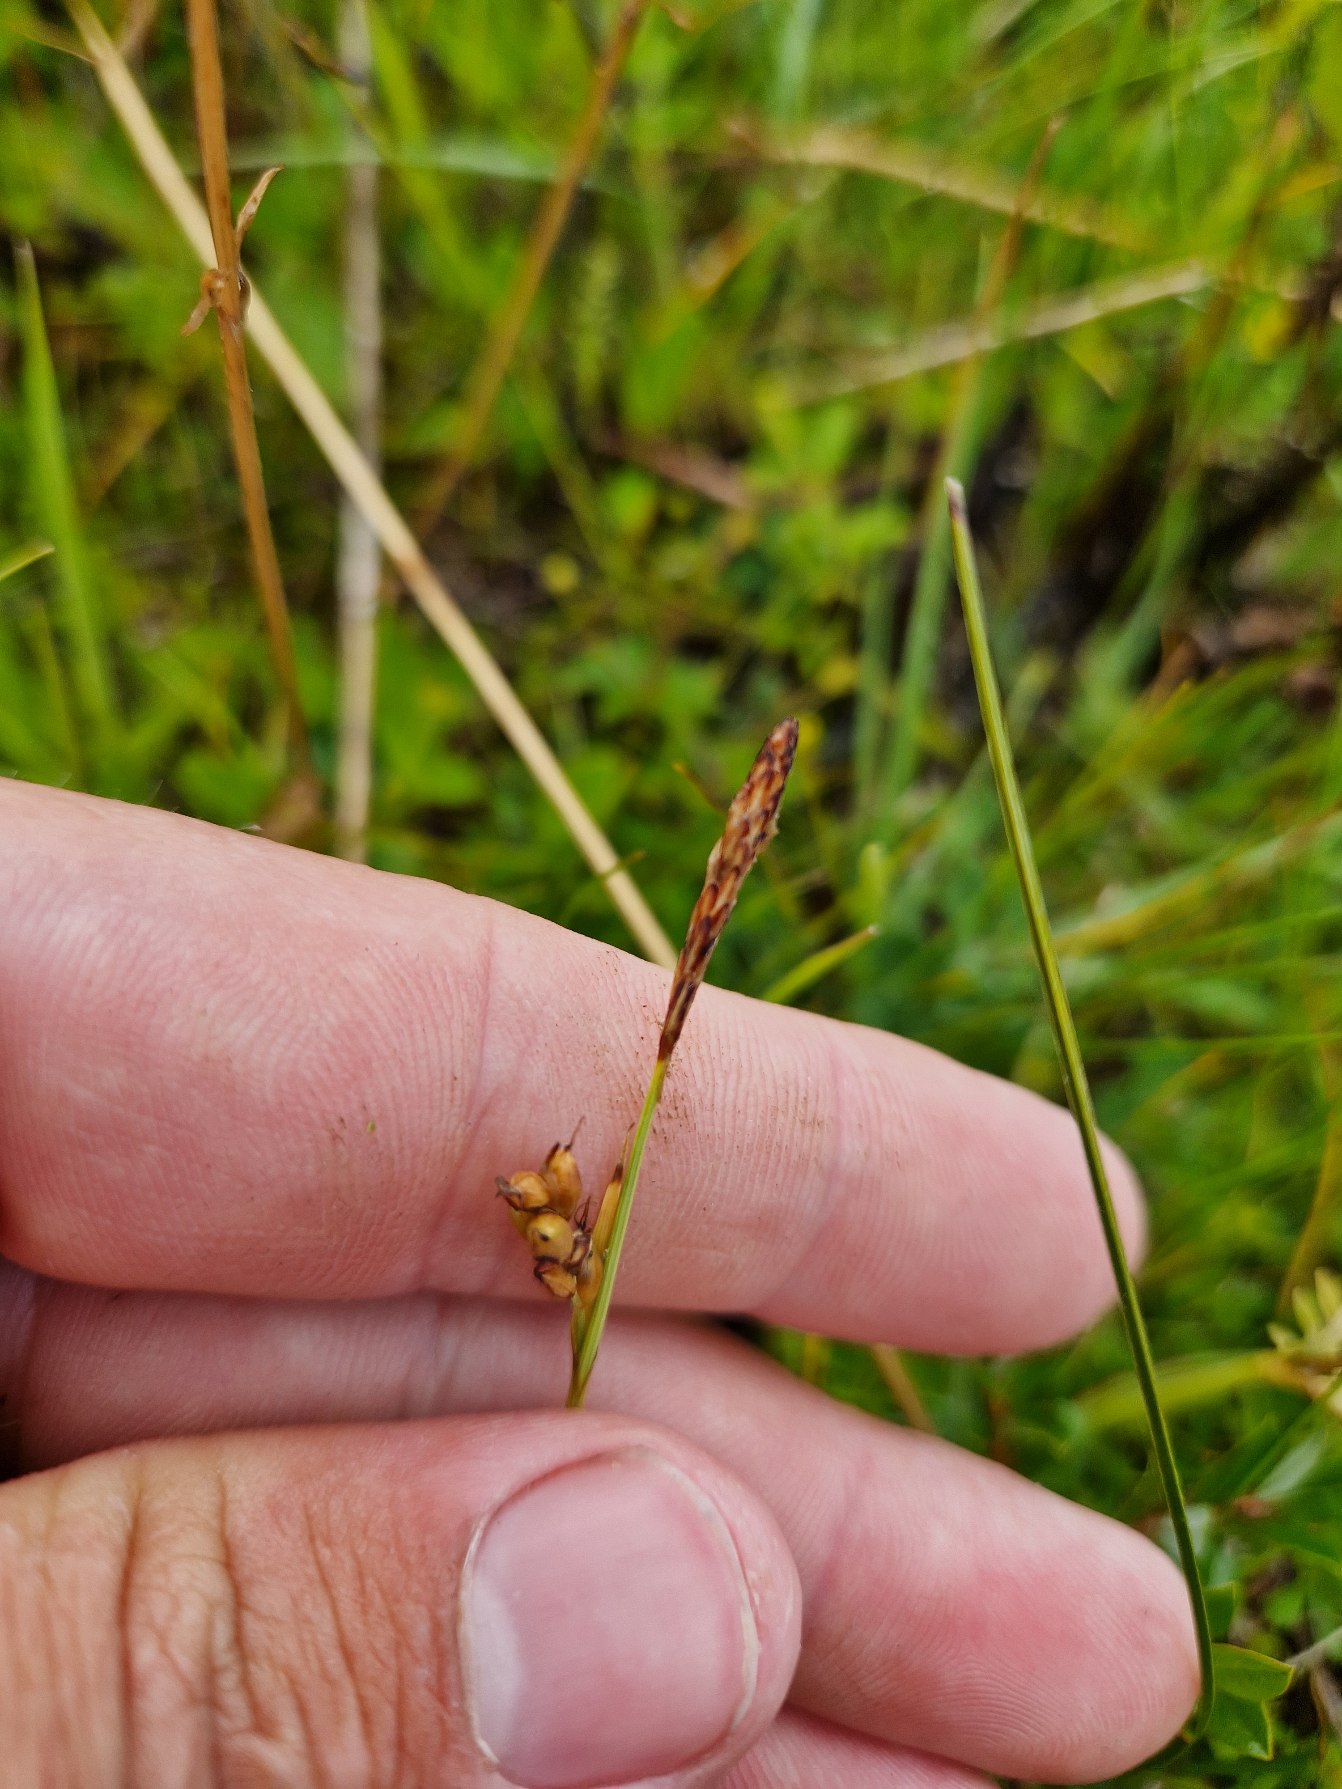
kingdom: Plantae
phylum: Tracheophyta
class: Liliopsida
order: Poales
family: Cyperaceae
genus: Carex
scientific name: Carex panicea
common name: Hirse-star
